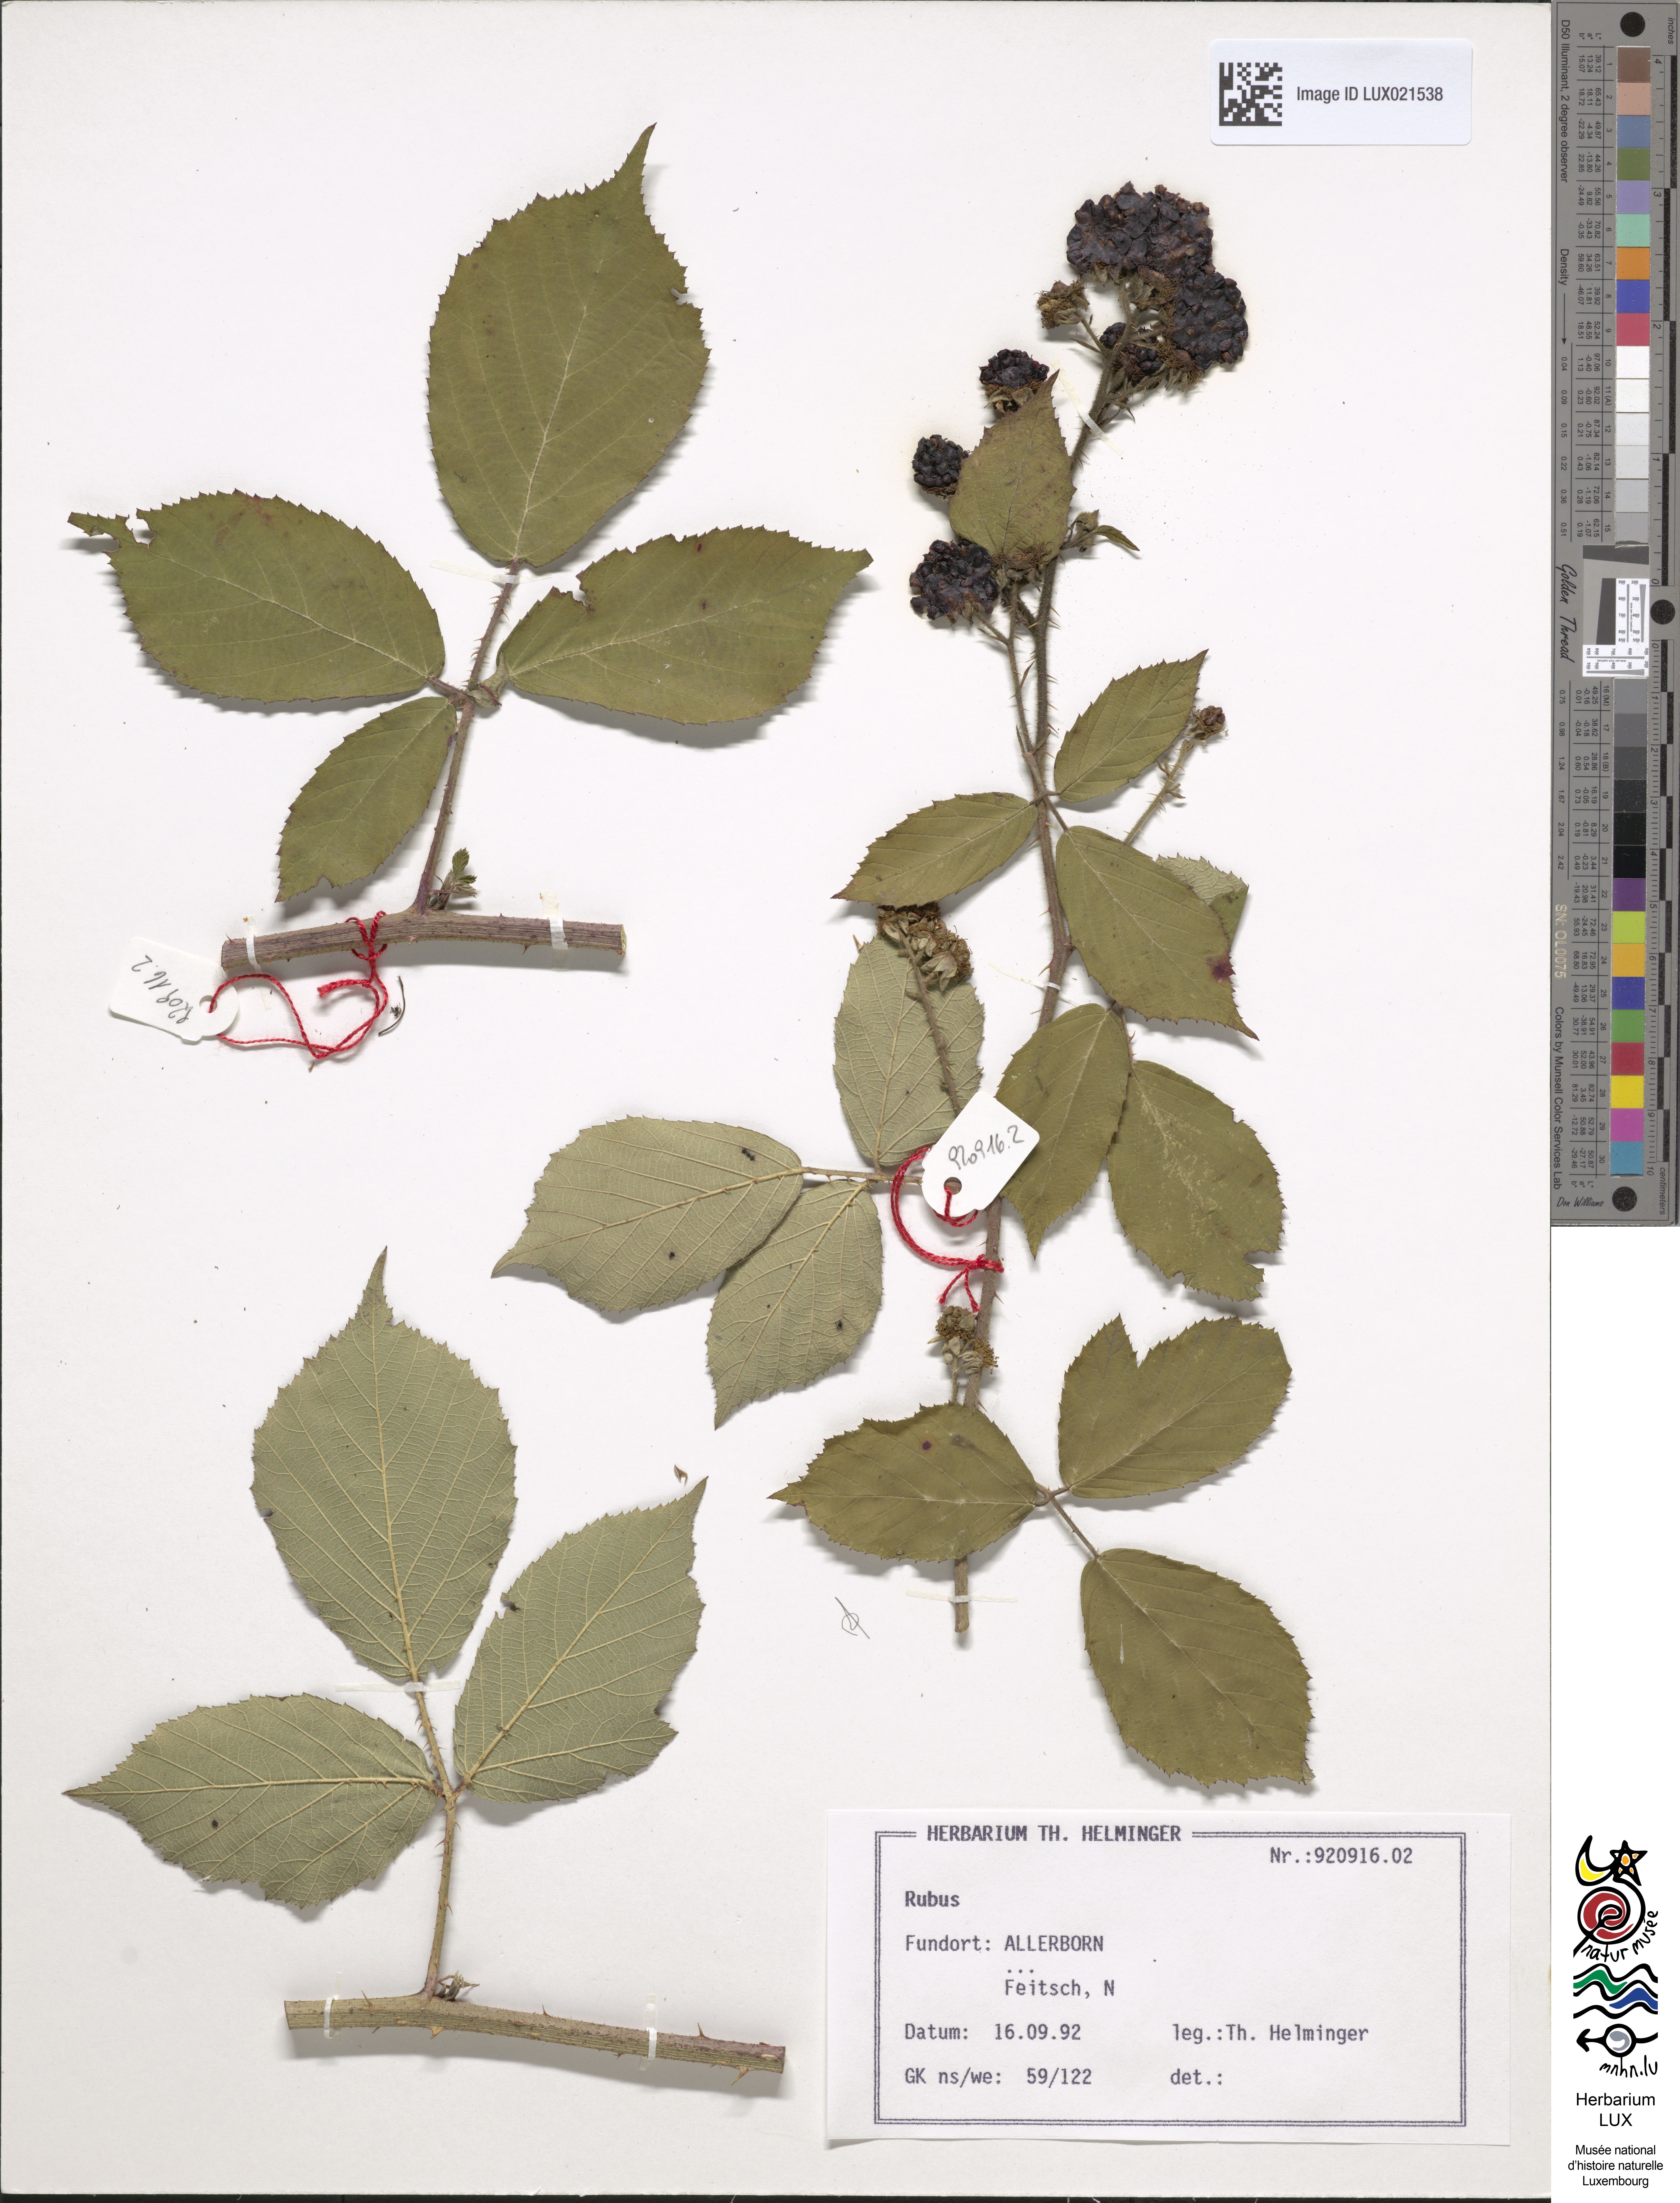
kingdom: Plantae
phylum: Tracheophyta
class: Magnoliopsida
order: Rosales
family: Rosaceae
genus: Rubus
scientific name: Rubus
